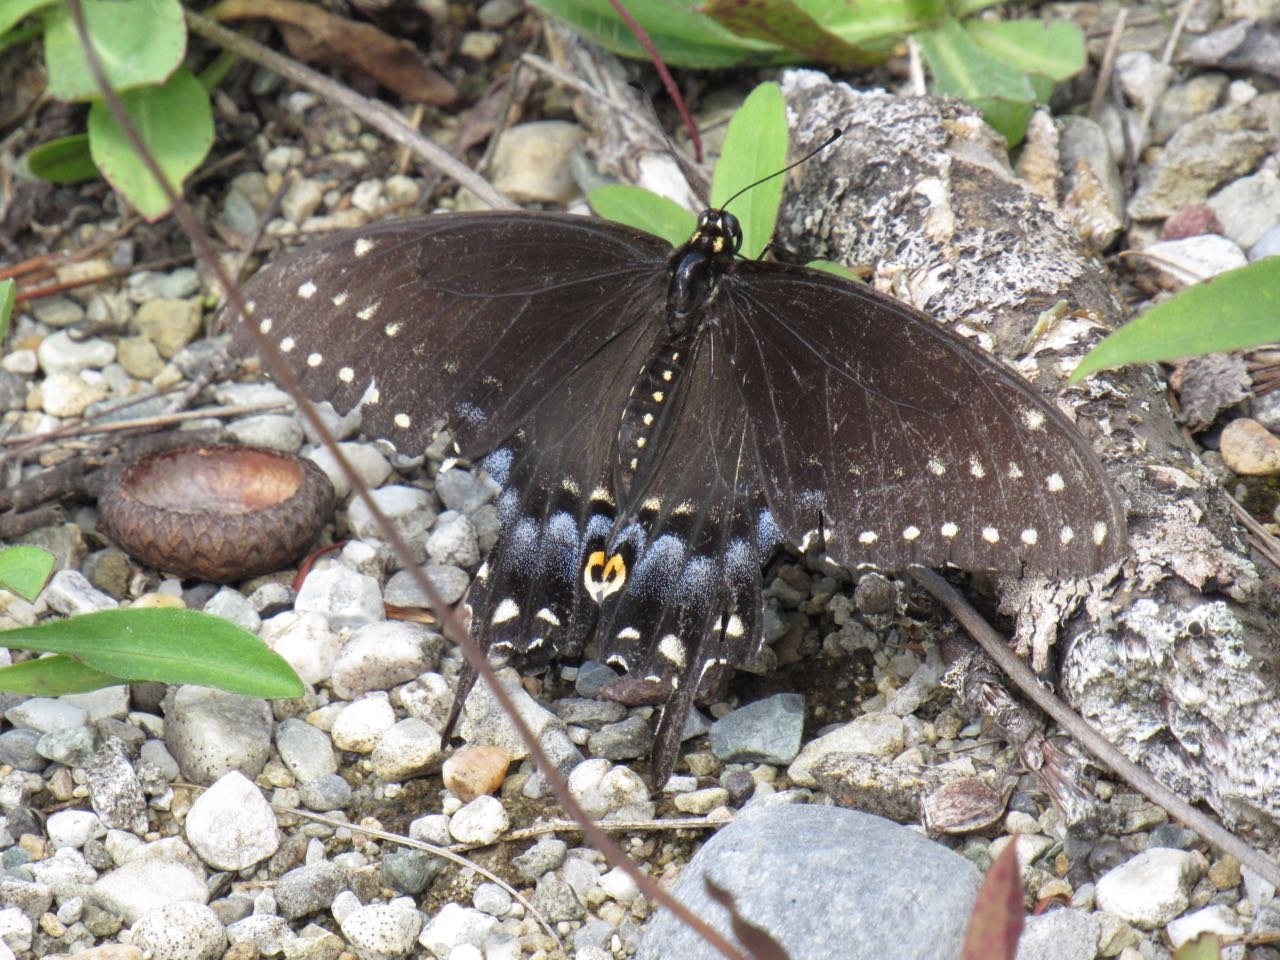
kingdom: Animalia
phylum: Arthropoda
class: Insecta
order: Lepidoptera
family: Papilionidae
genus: Papilio
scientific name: Papilio polyxenes
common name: Black Swallowtail
